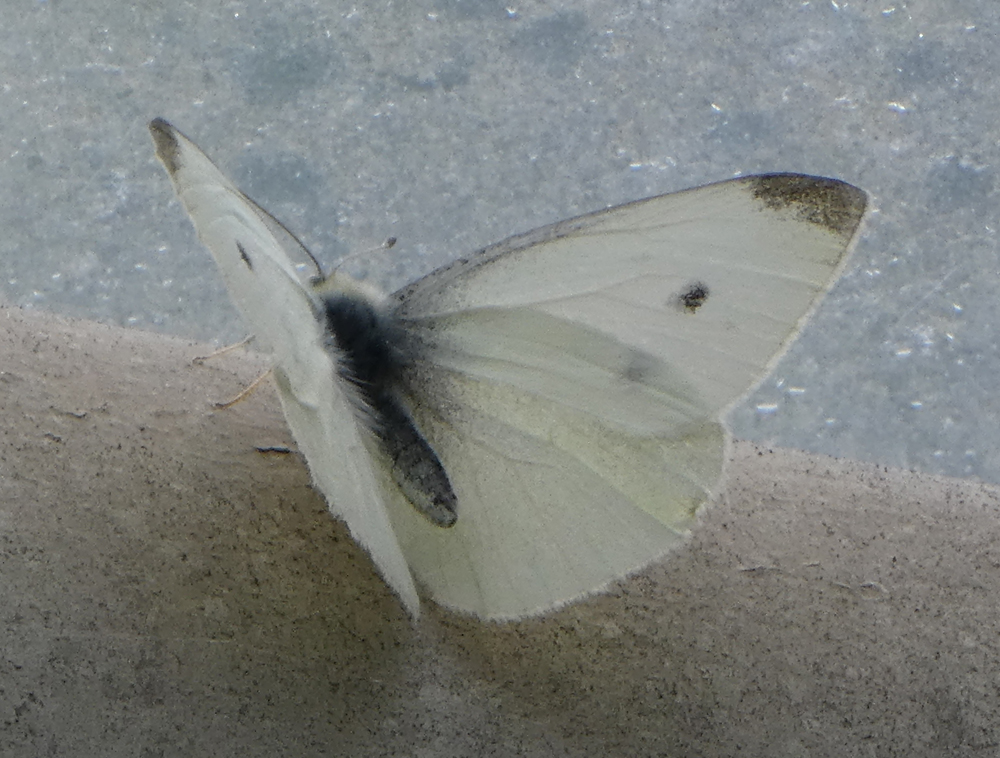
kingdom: Animalia
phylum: Arthropoda
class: Insecta
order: Lepidoptera
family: Pieridae
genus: Pieris
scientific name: Pieris rapae
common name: Small white
